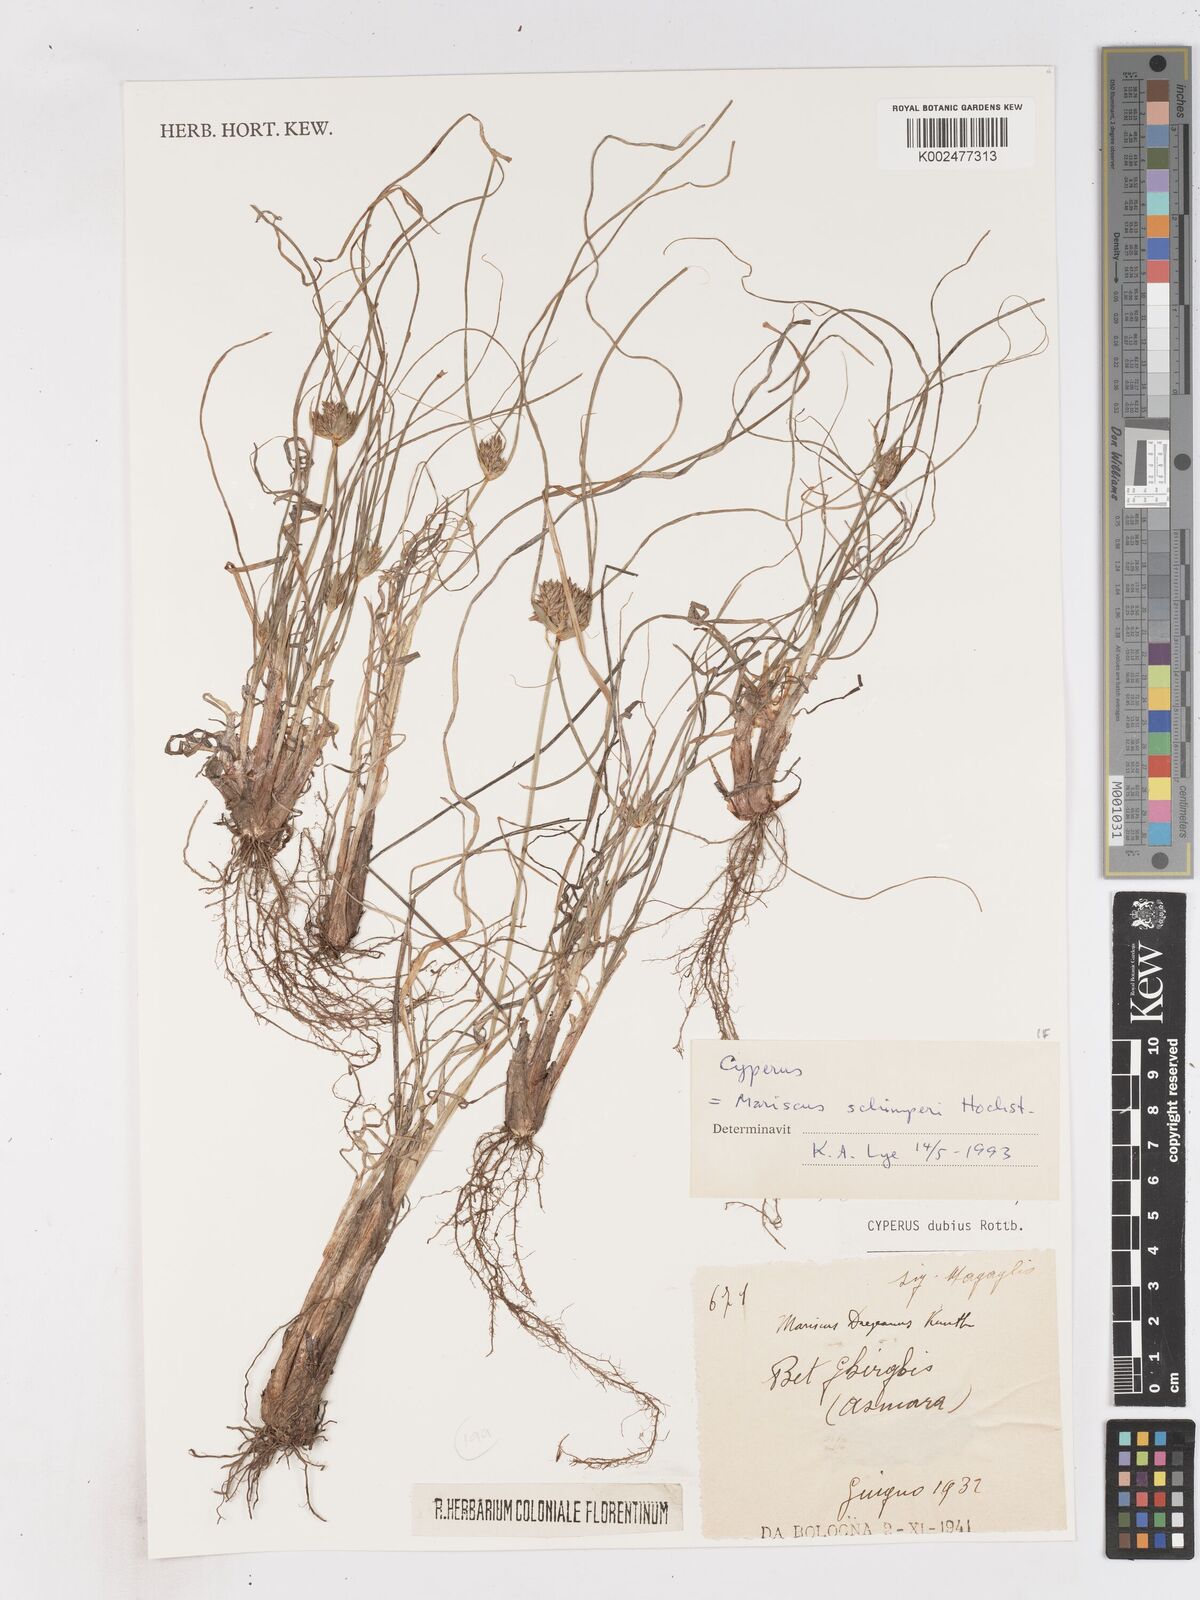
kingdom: Plantae
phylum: Tracheophyta
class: Liliopsida
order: Poales
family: Cyperaceae
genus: Cyperus
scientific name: Cyperus
